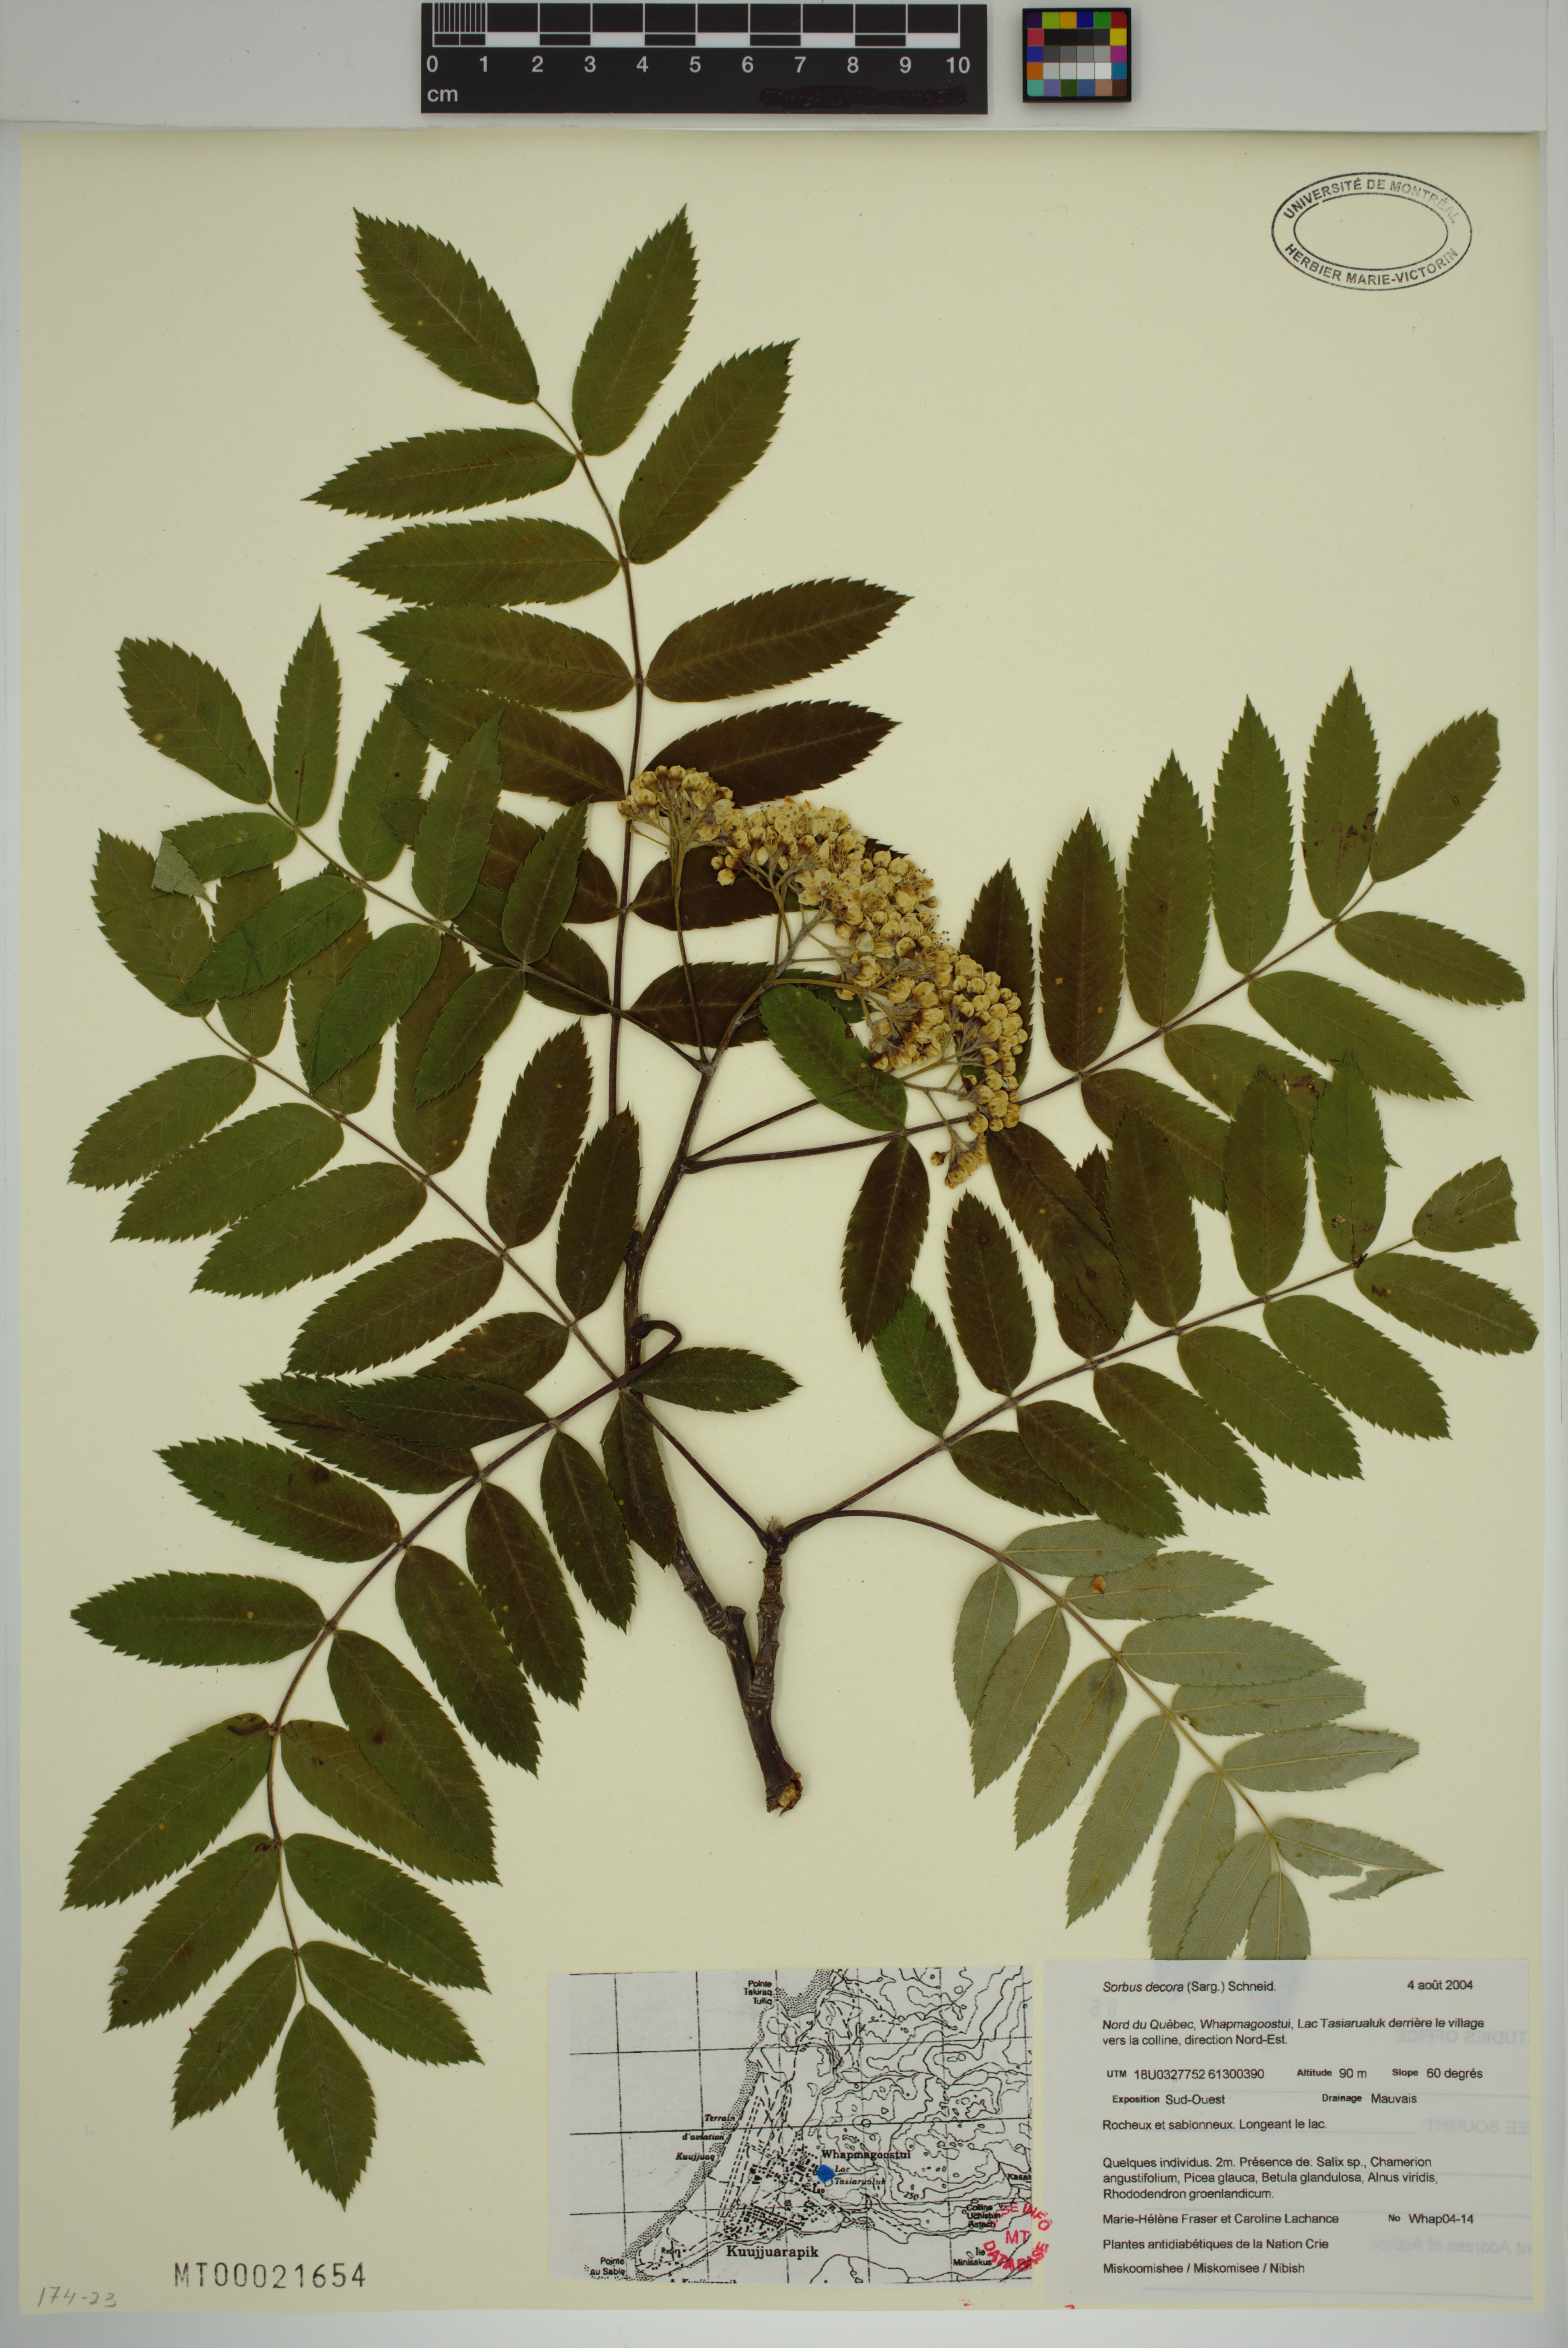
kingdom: Plantae
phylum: Tracheophyta
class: Magnoliopsida
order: Rosales
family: Rosaceae
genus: Sorbus
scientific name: Sorbus decora
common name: Northern mountain-ash
